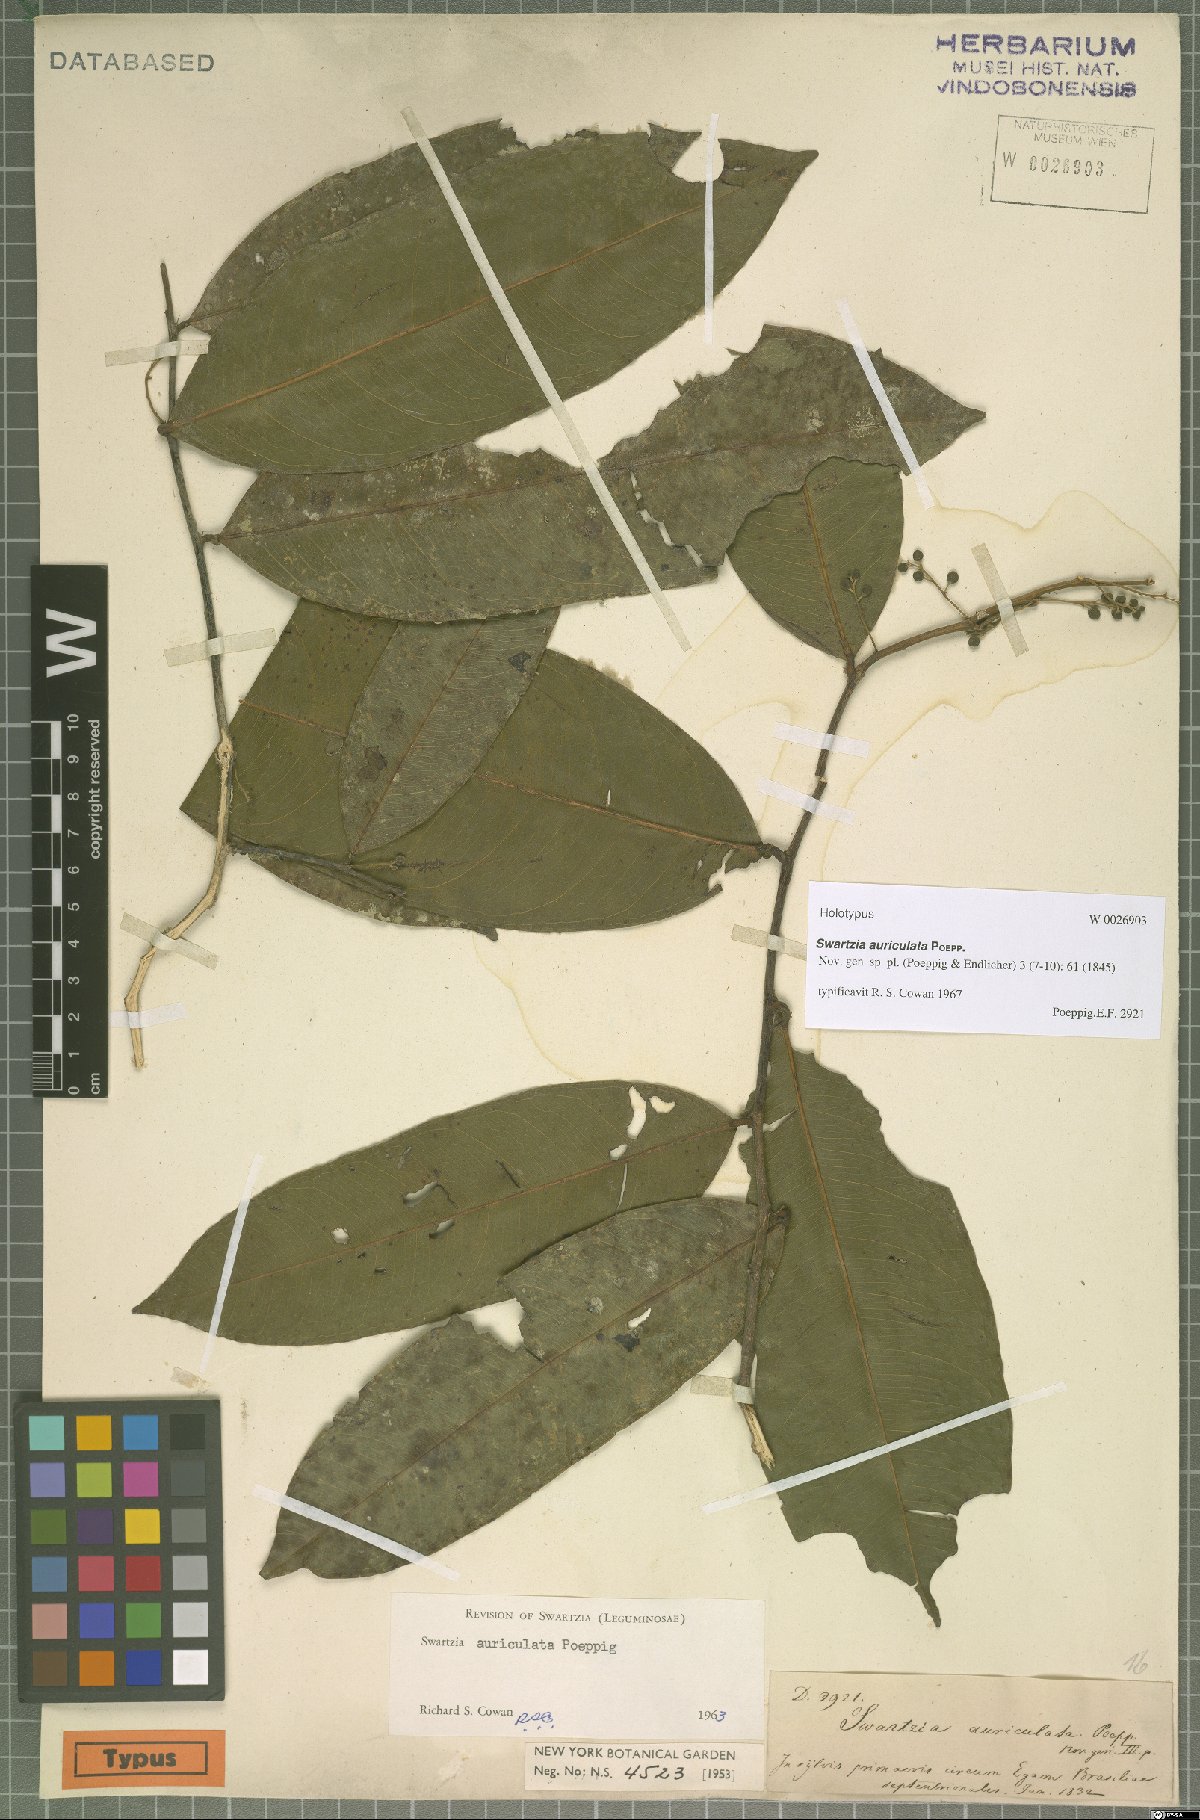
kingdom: Plantae
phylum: Tracheophyta
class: Magnoliopsida
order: Fabales
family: Fabaceae
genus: Swartzia
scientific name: Swartzia auriculata
